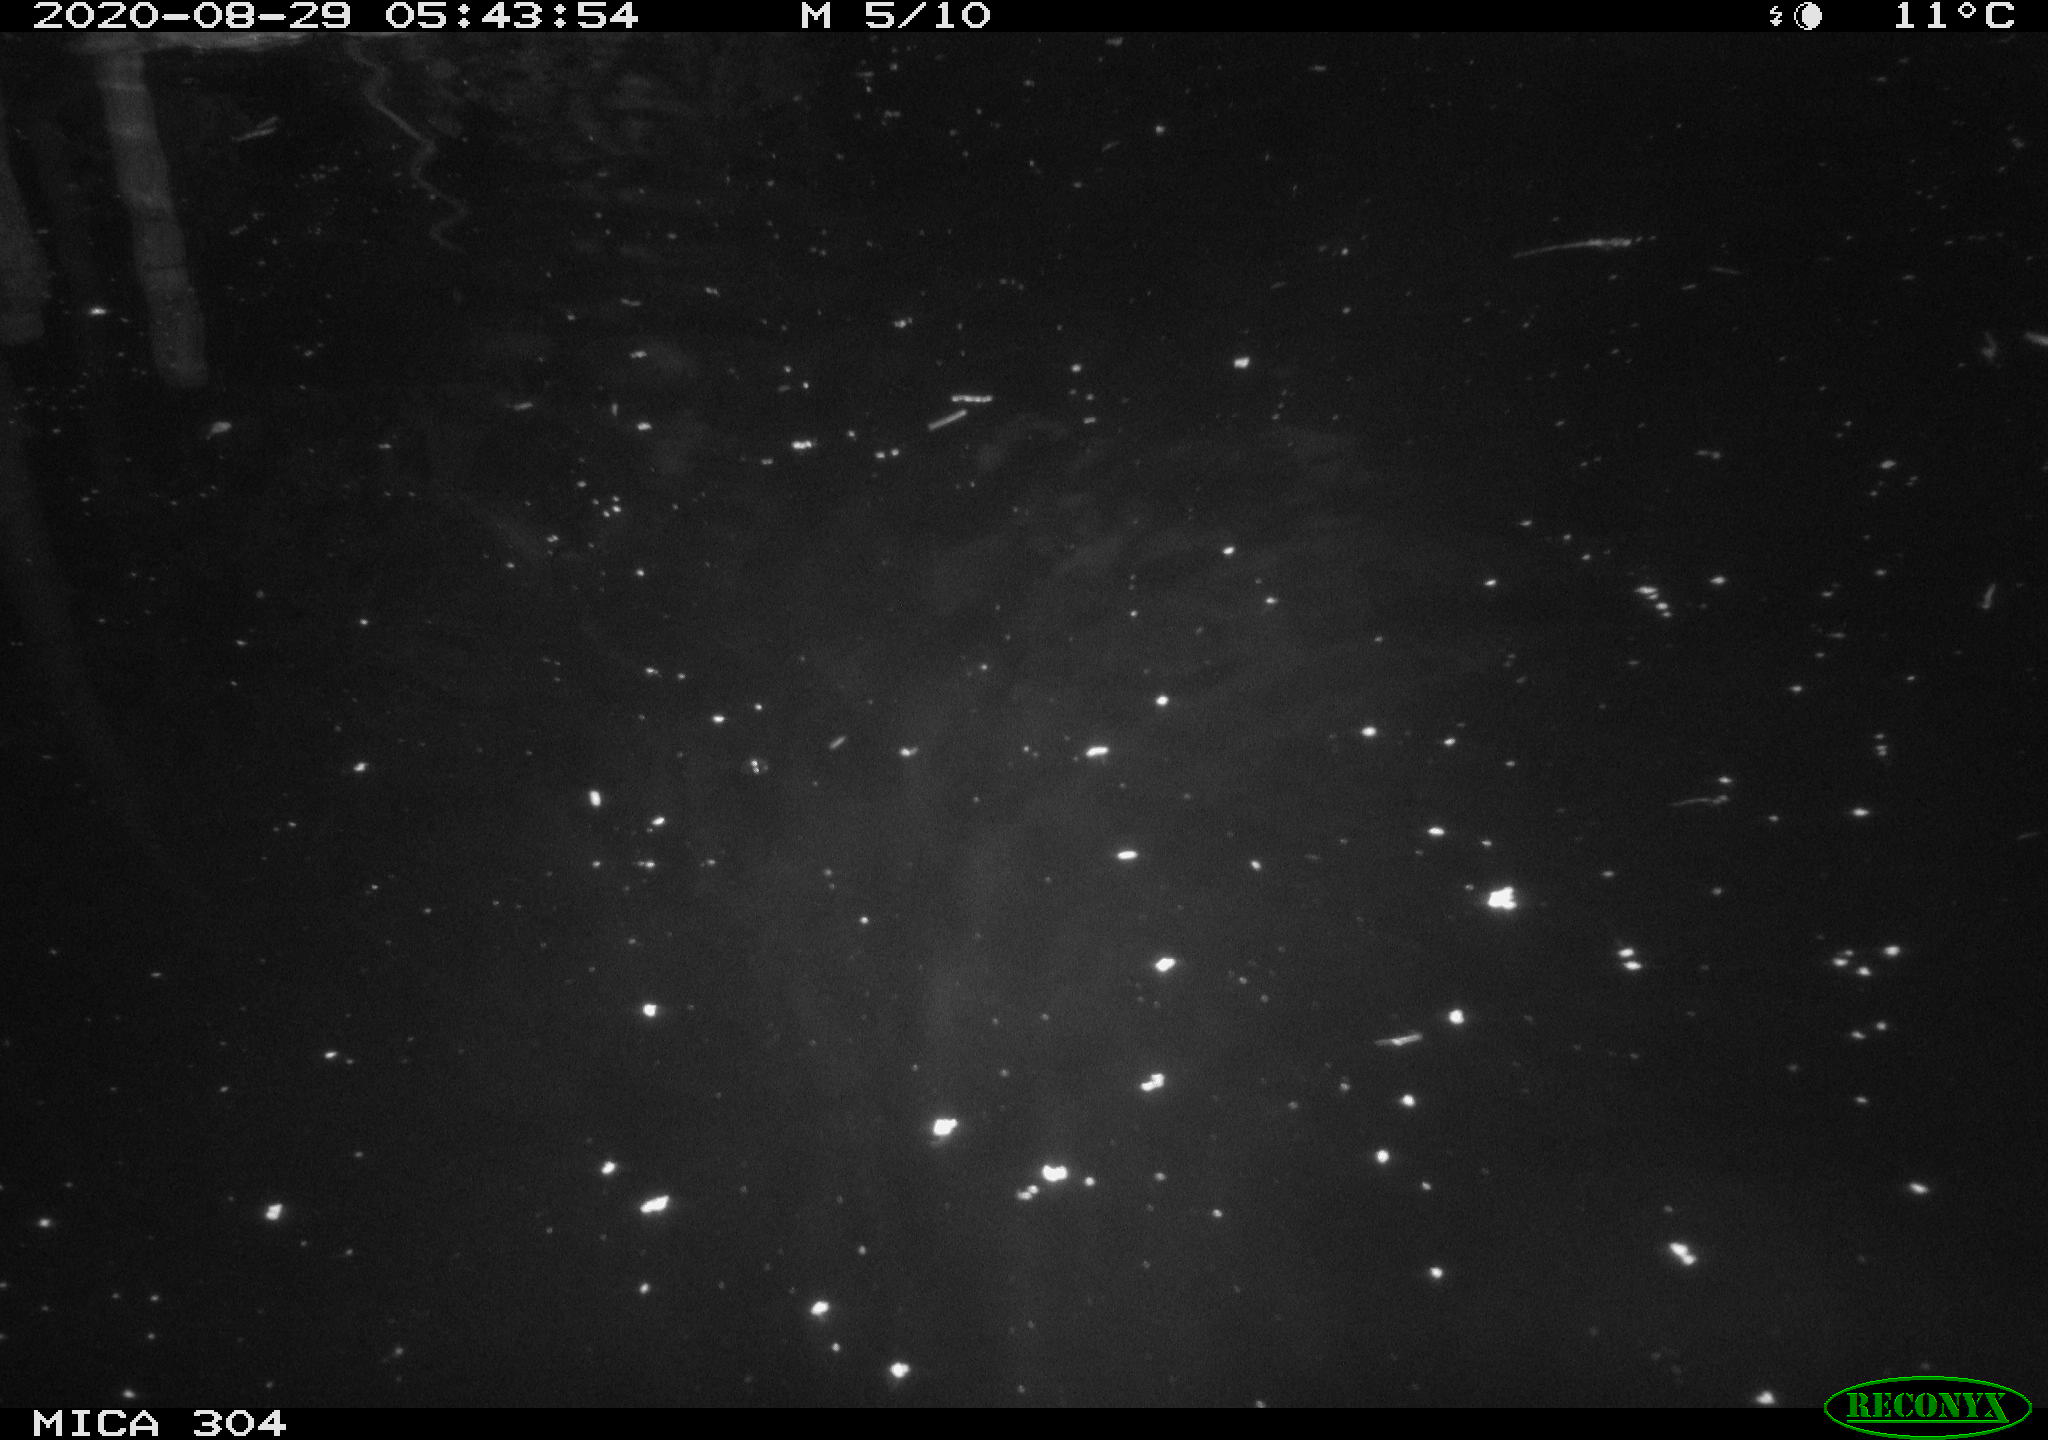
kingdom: Animalia
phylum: Chordata
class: Mammalia
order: Rodentia
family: Cricetidae
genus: Ondatra
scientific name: Ondatra zibethicus
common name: Muskrat
